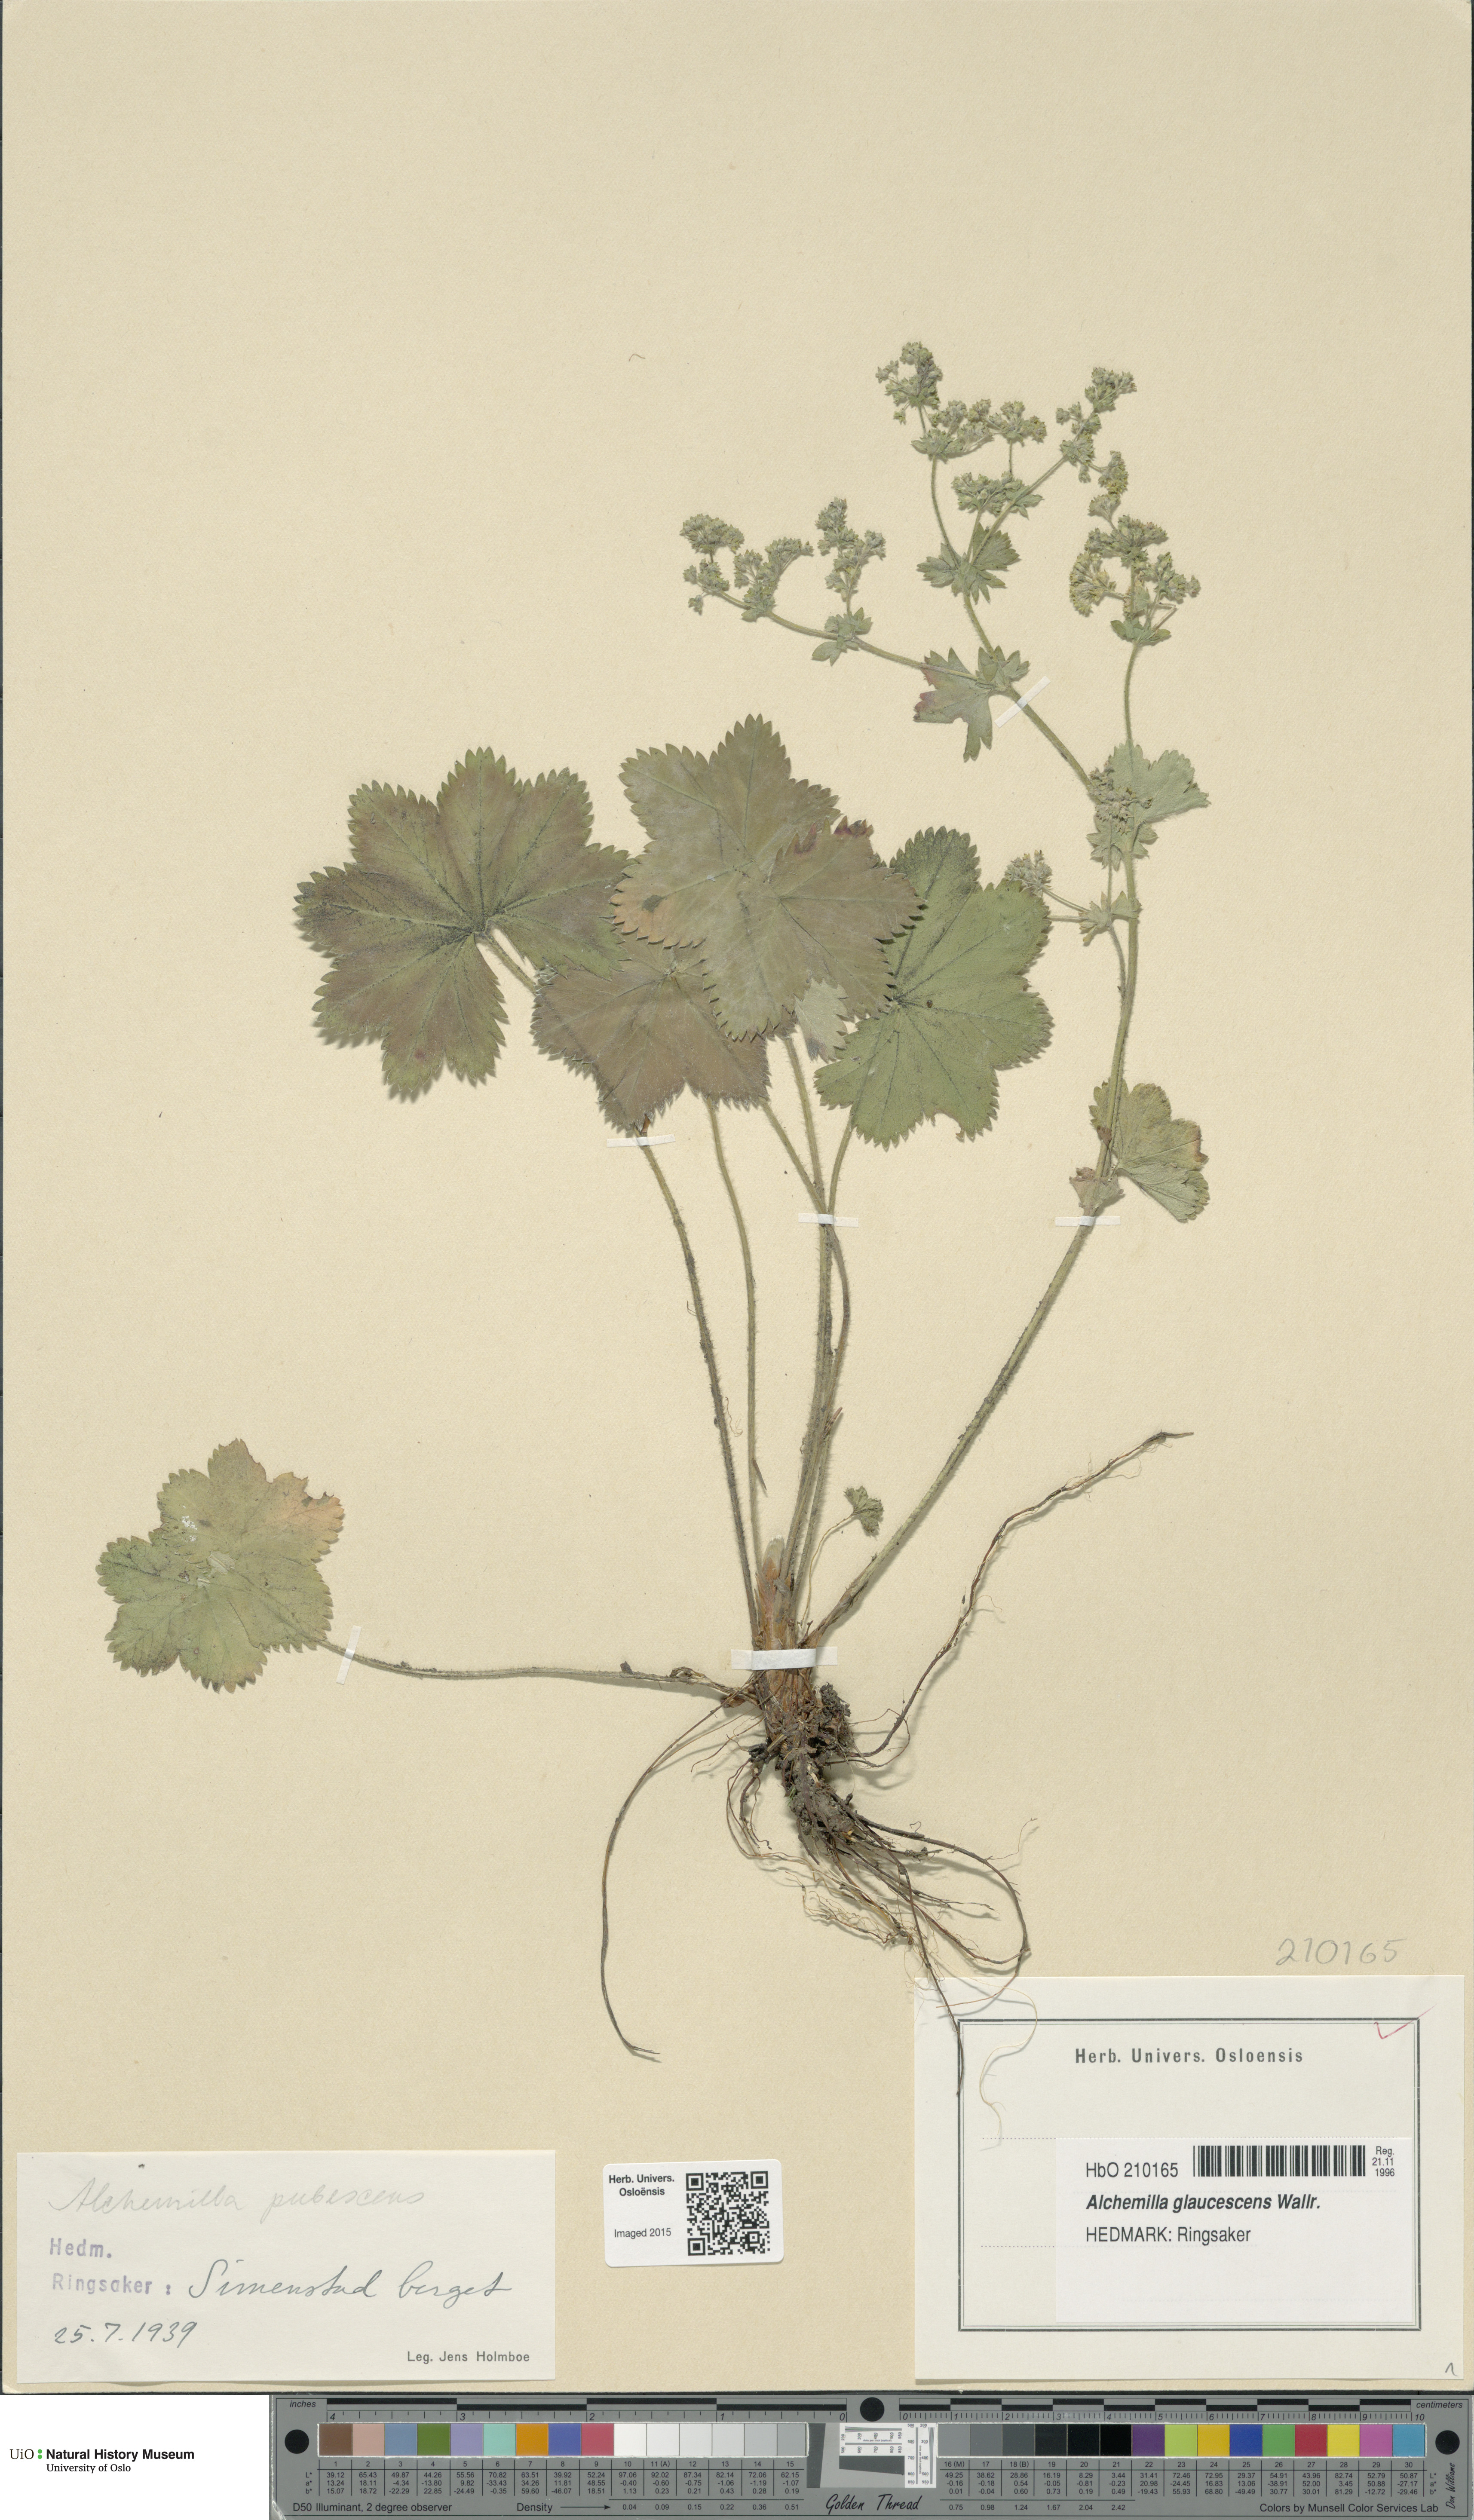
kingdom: Plantae
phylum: Tracheophyta
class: Magnoliopsida
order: Rosales
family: Rosaceae
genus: Alchemilla
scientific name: Alchemilla glaucescens
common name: Silky lady's mantle
